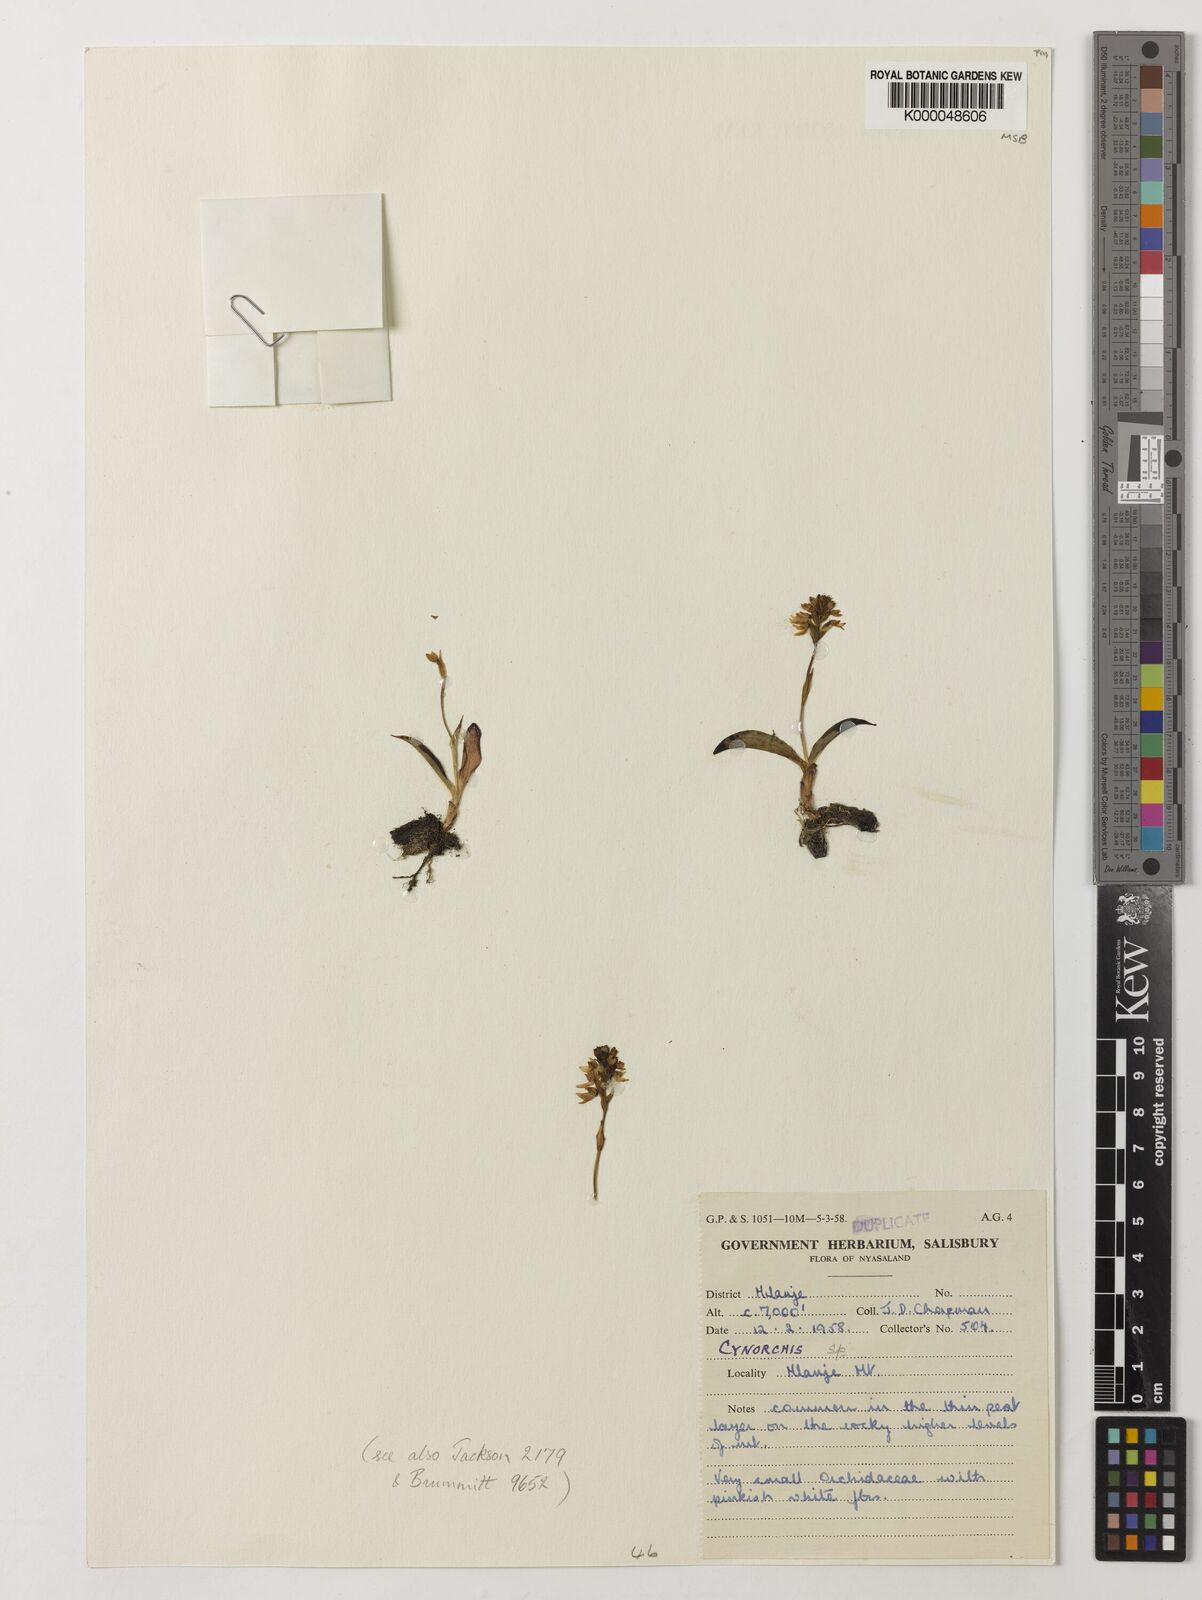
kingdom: Plantae
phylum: Tracheophyta
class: Liliopsida
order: Asparagales
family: Orchidaceae
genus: Cynorkis
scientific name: Cynorkis brevicalcar
